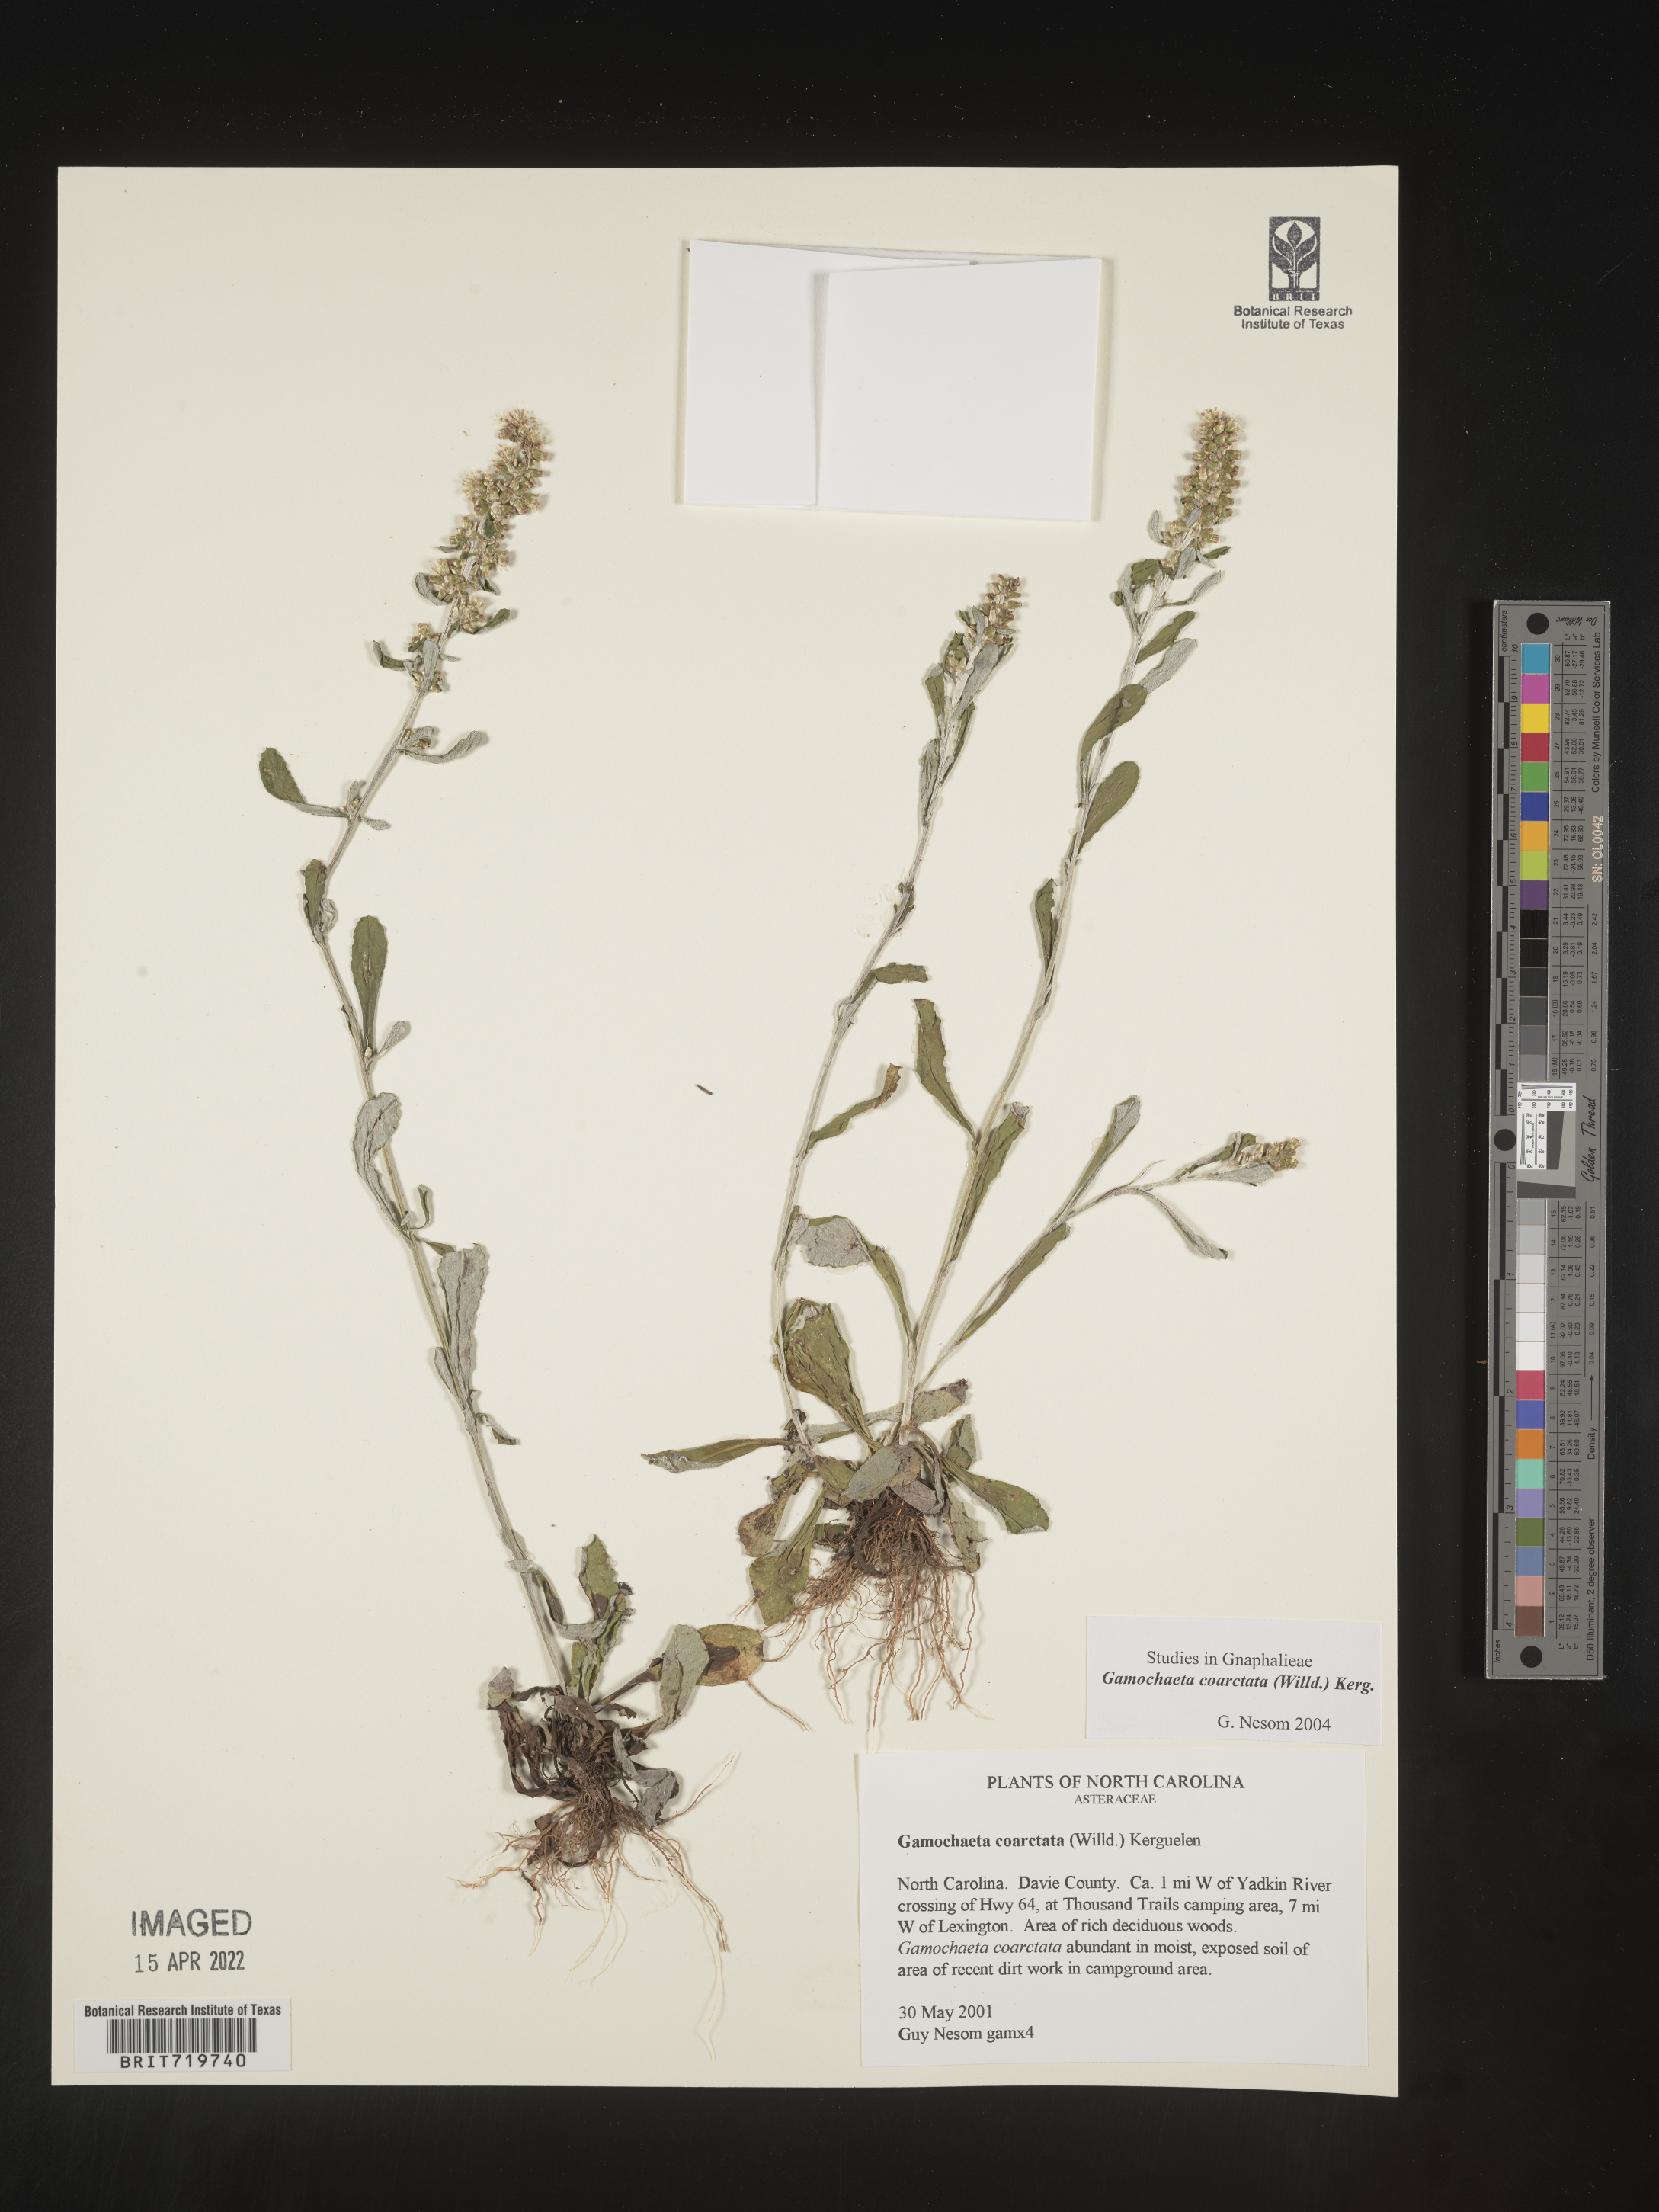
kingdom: Plantae
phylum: Tracheophyta
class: Magnoliopsida
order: Asterales
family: Asteraceae
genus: Gamochaeta
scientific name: Gamochaeta americana
